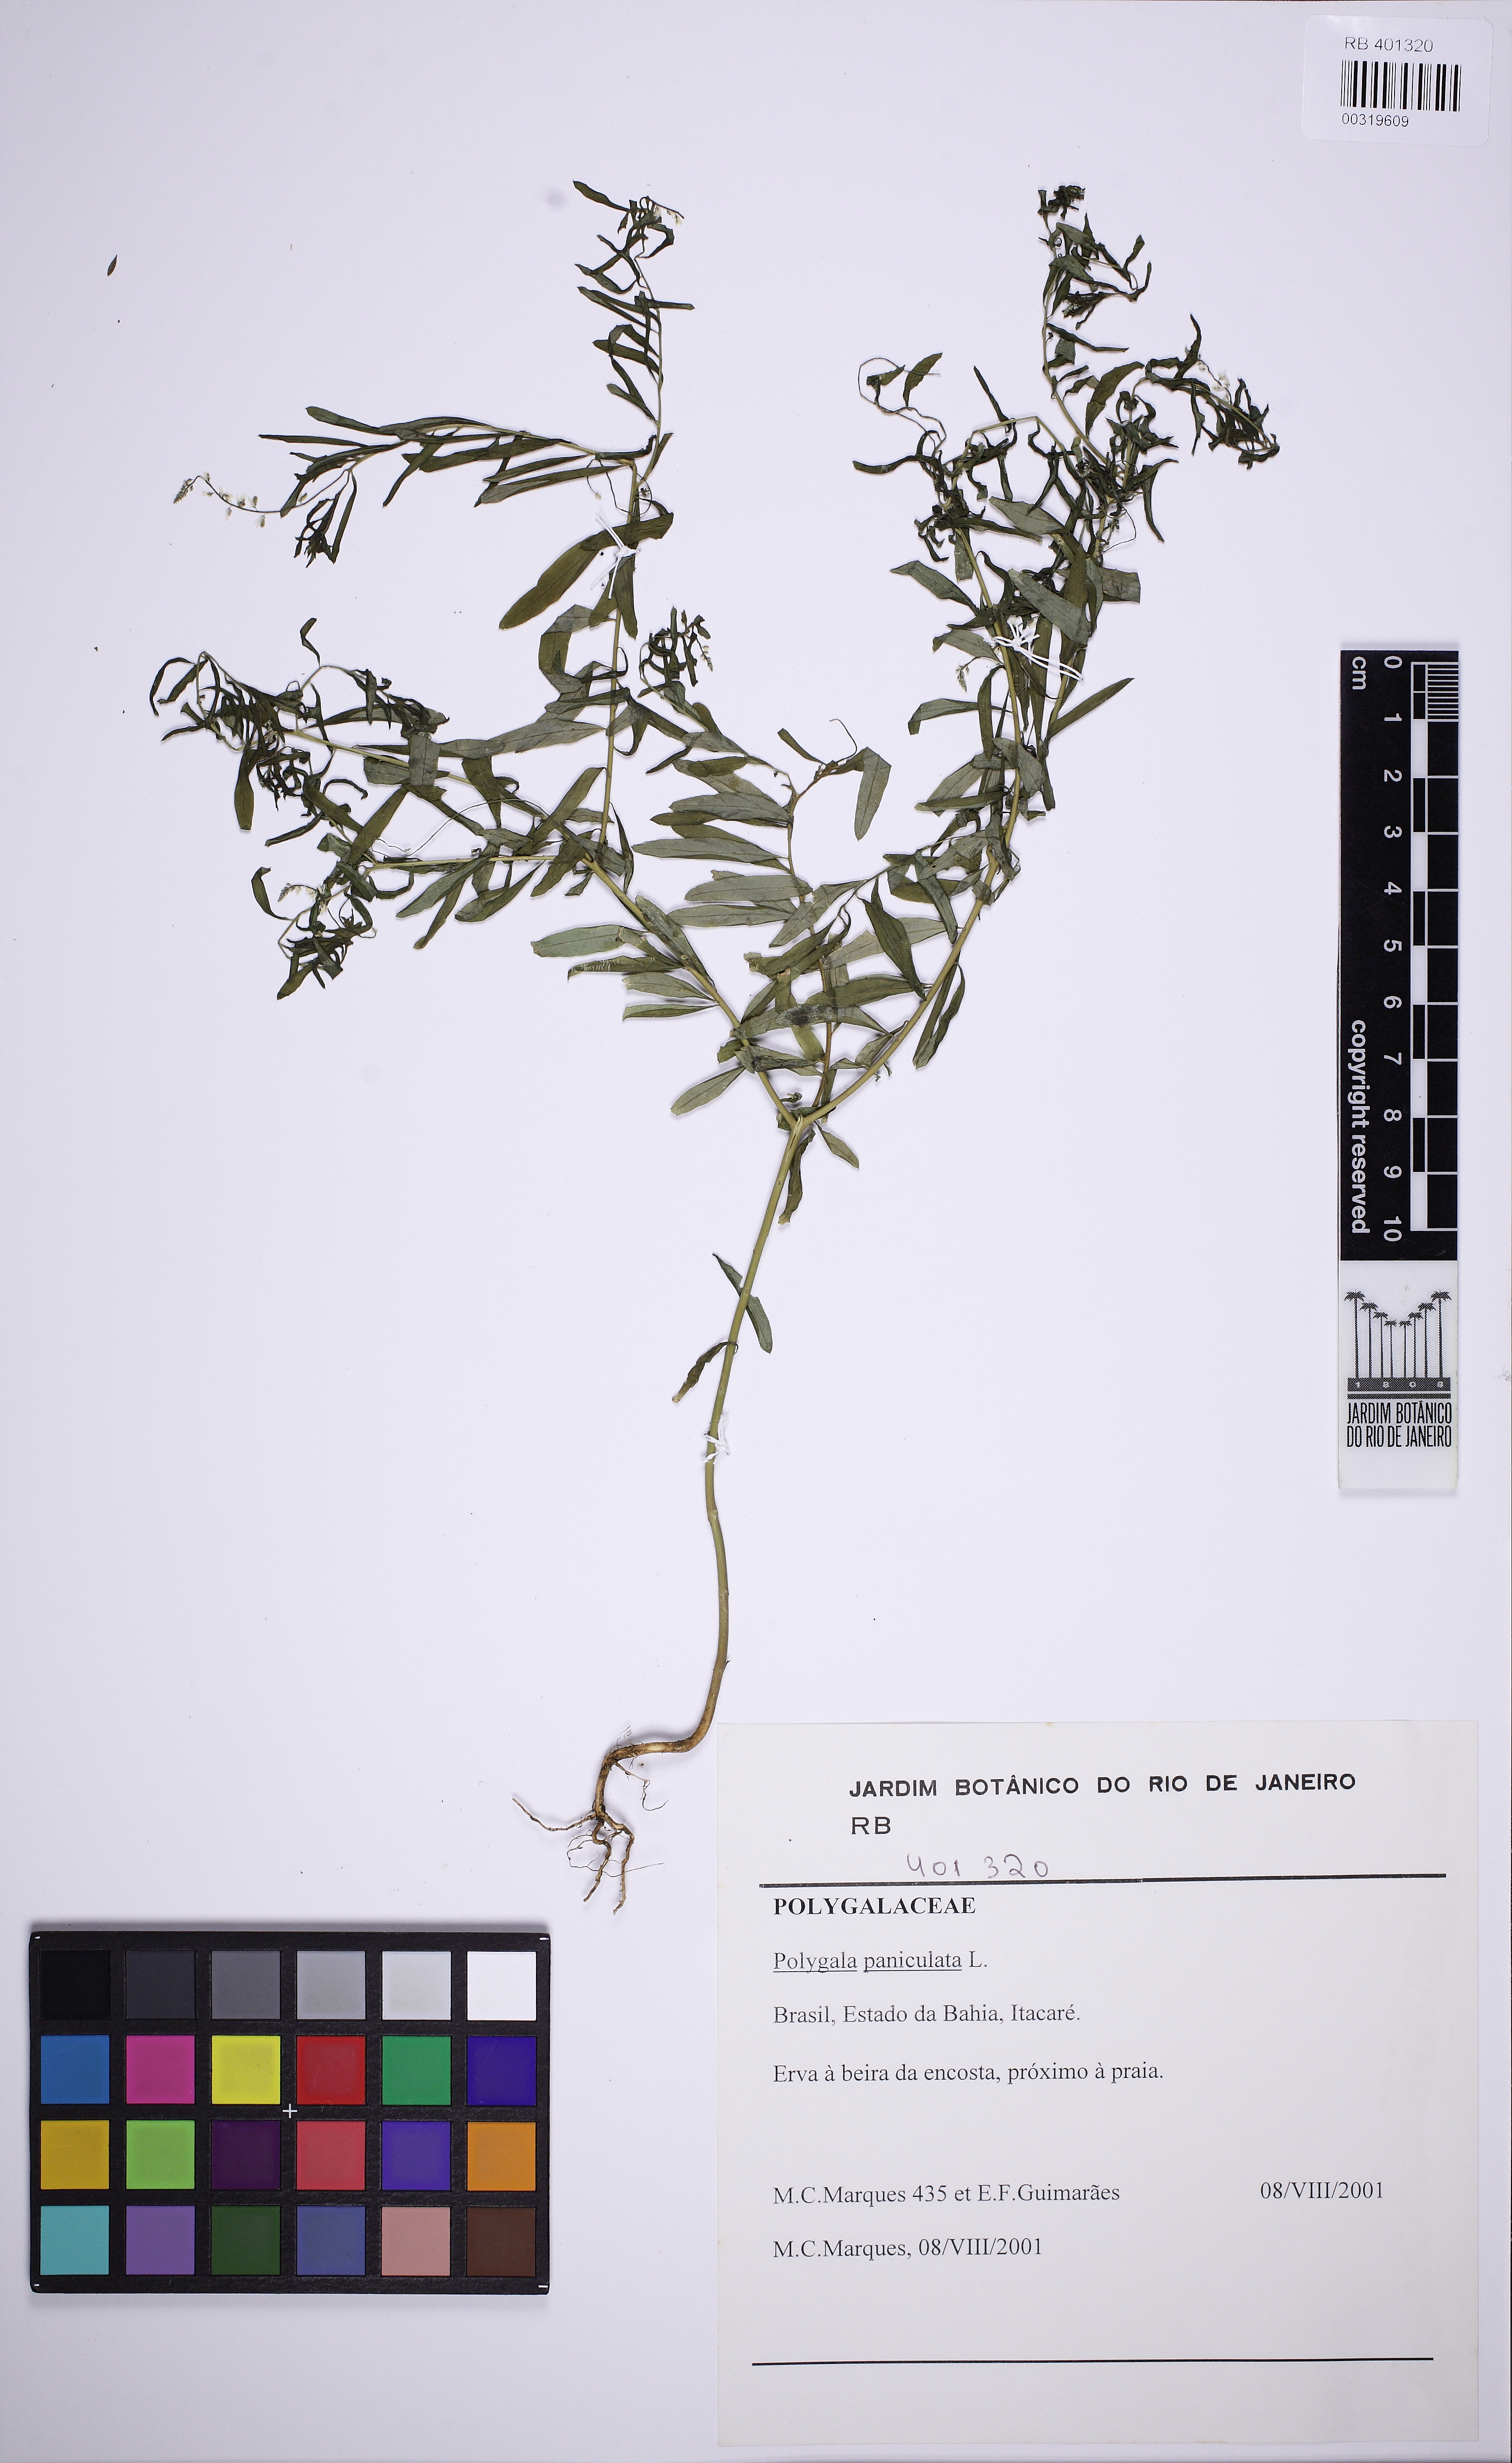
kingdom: Plantae
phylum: Tracheophyta
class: Magnoliopsida
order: Fabales
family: Polygalaceae
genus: Polygala
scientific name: Polygala paniculata
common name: Orosne
